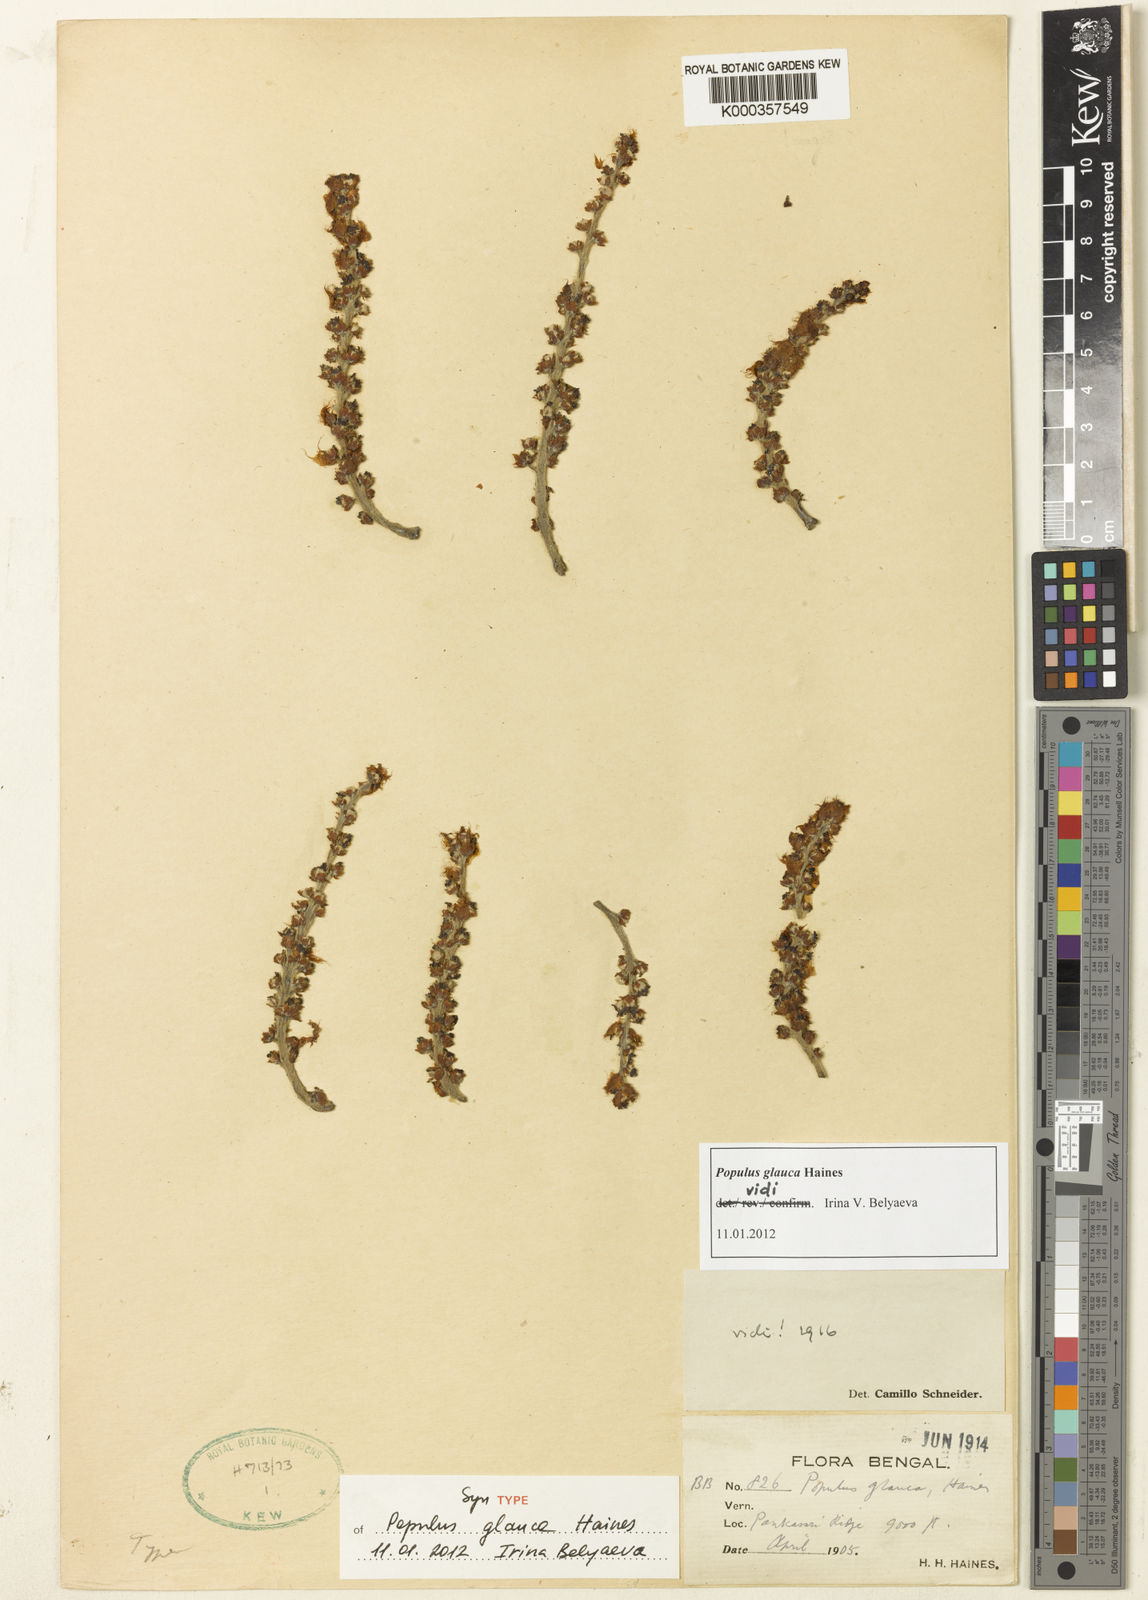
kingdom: Plantae
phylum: Tracheophyta
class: Magnoliopsida
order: Malpighiales
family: Salicaceae
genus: Populus
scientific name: Populus glauca
